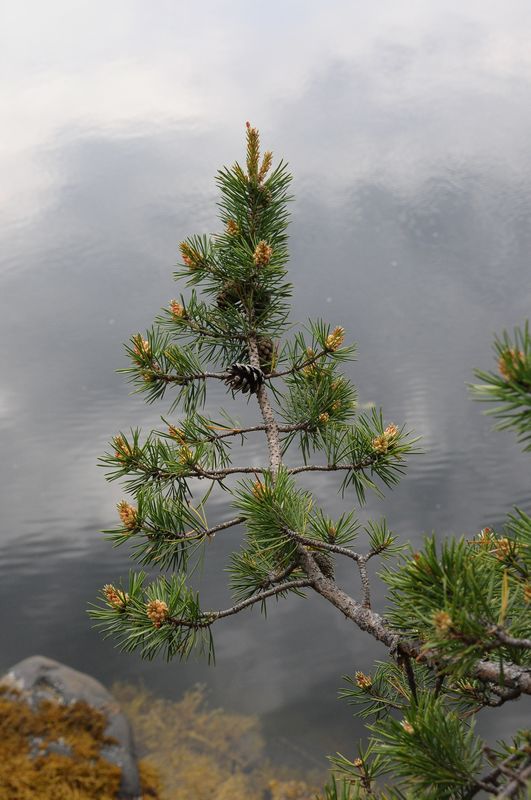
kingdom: Plantae
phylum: Tracheophyta
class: Pinopsida
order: Pinales
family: Pinaceae
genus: Pinus
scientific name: Pinus sylvestris
